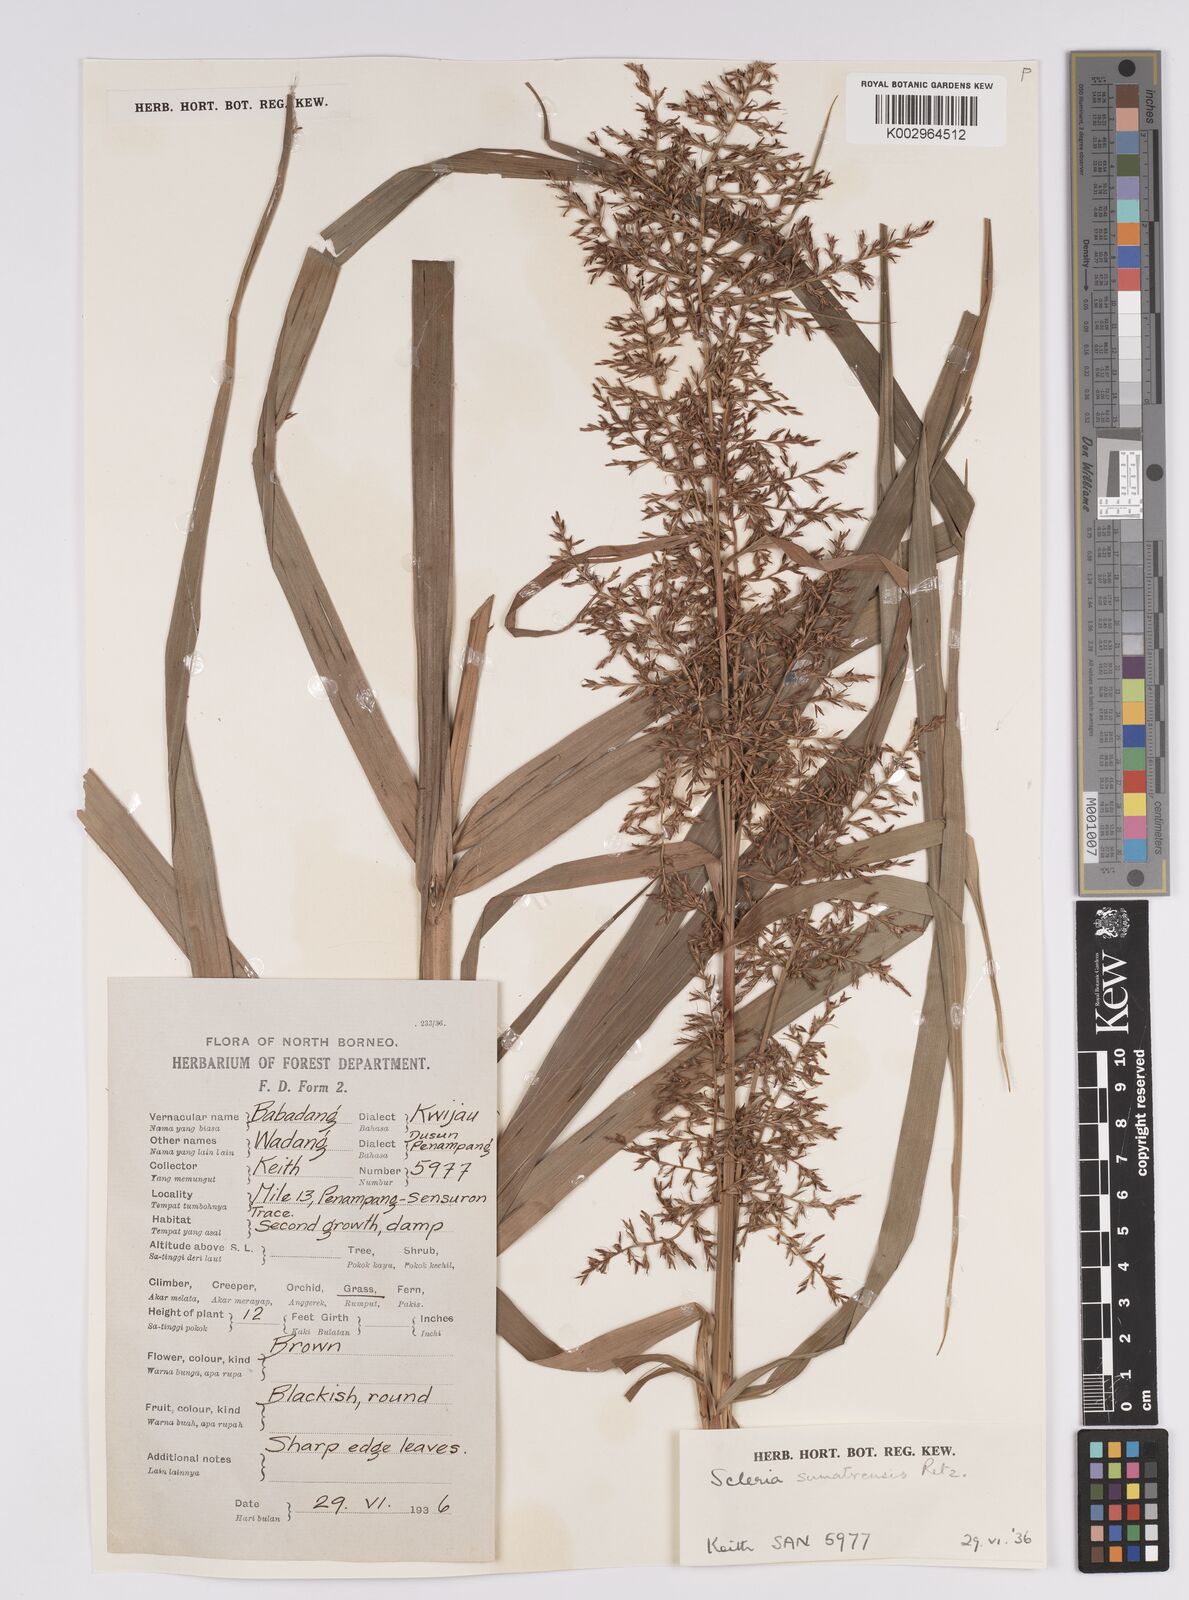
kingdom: Plantae
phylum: Tracheophyta
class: Liliopsida
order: Poales
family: Cyperaceae
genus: Scleria
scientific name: Scleria sumatrensis
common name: Sumatran scleria
